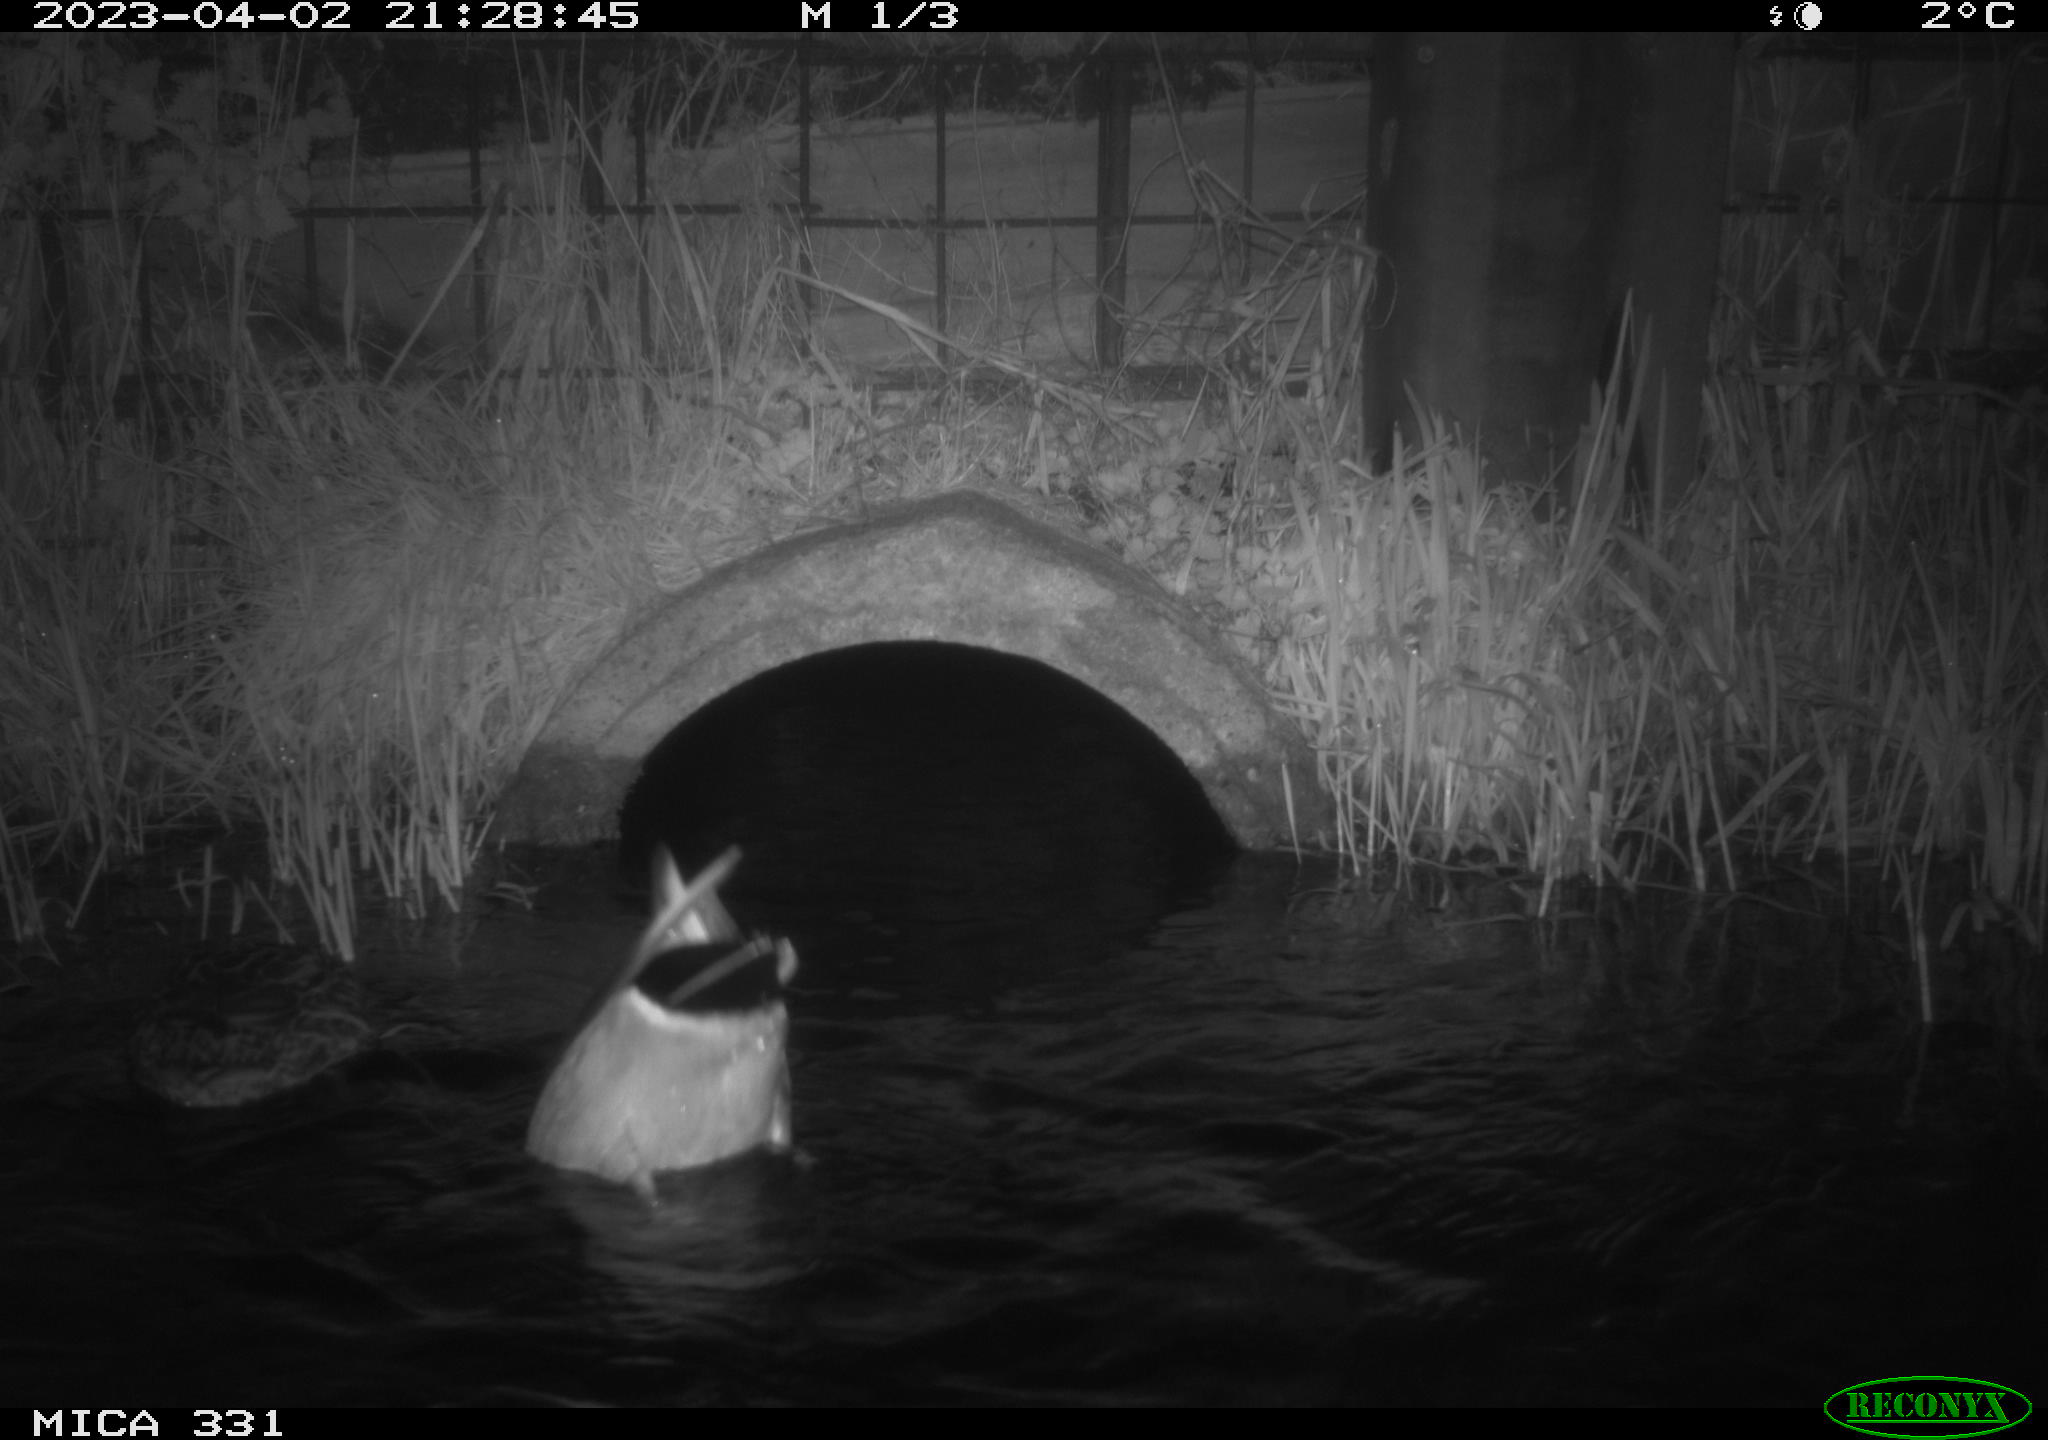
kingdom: Animalia
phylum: Chordata
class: Aves
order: Anseriformes
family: Anatidae
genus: Anas
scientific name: Anas
